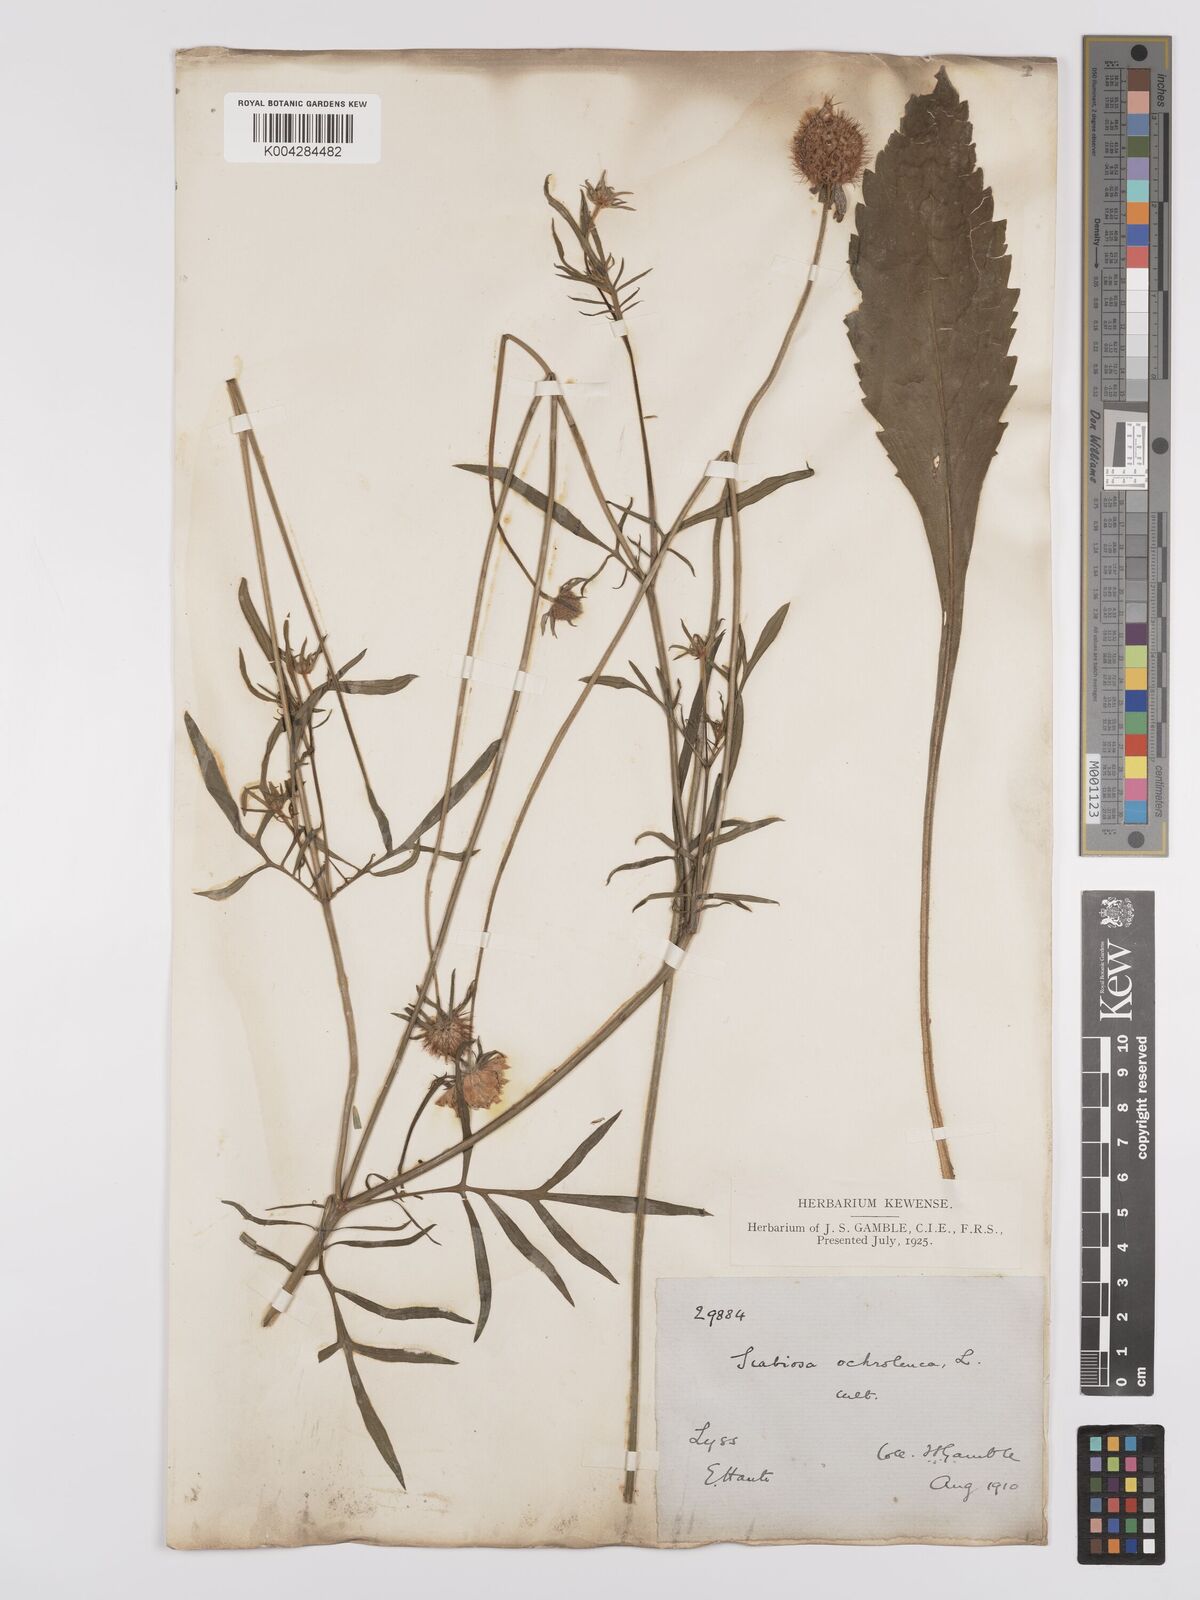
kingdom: Plantae
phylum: Tracheophyta
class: Magnoliopsida
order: Dipsacales
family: Caprifoliaceae
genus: Scabiosa
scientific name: Scabiosa ochroleuca
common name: Cream pincushions
